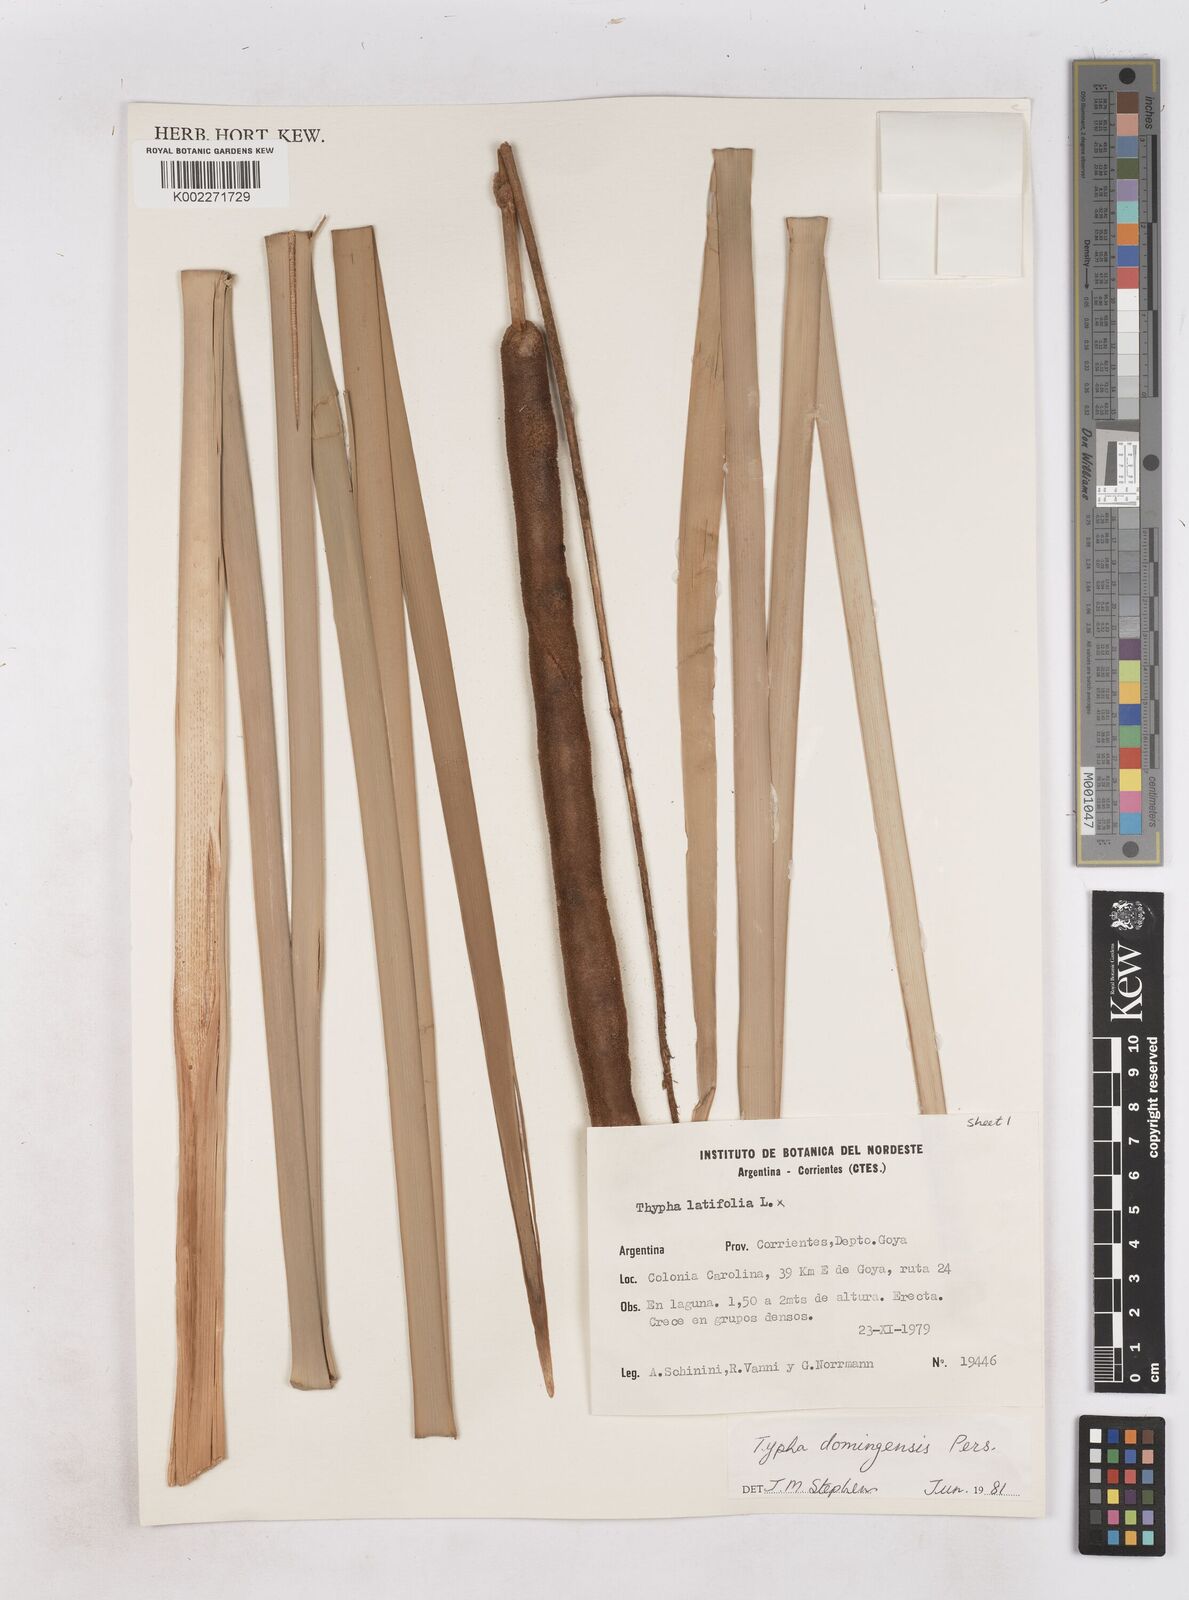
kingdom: Plantae
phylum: Tracheophyta
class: Liliopsida
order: Poales
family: Typhaceae
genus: Typha
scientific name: Typha domingensis
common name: Southern cattail
